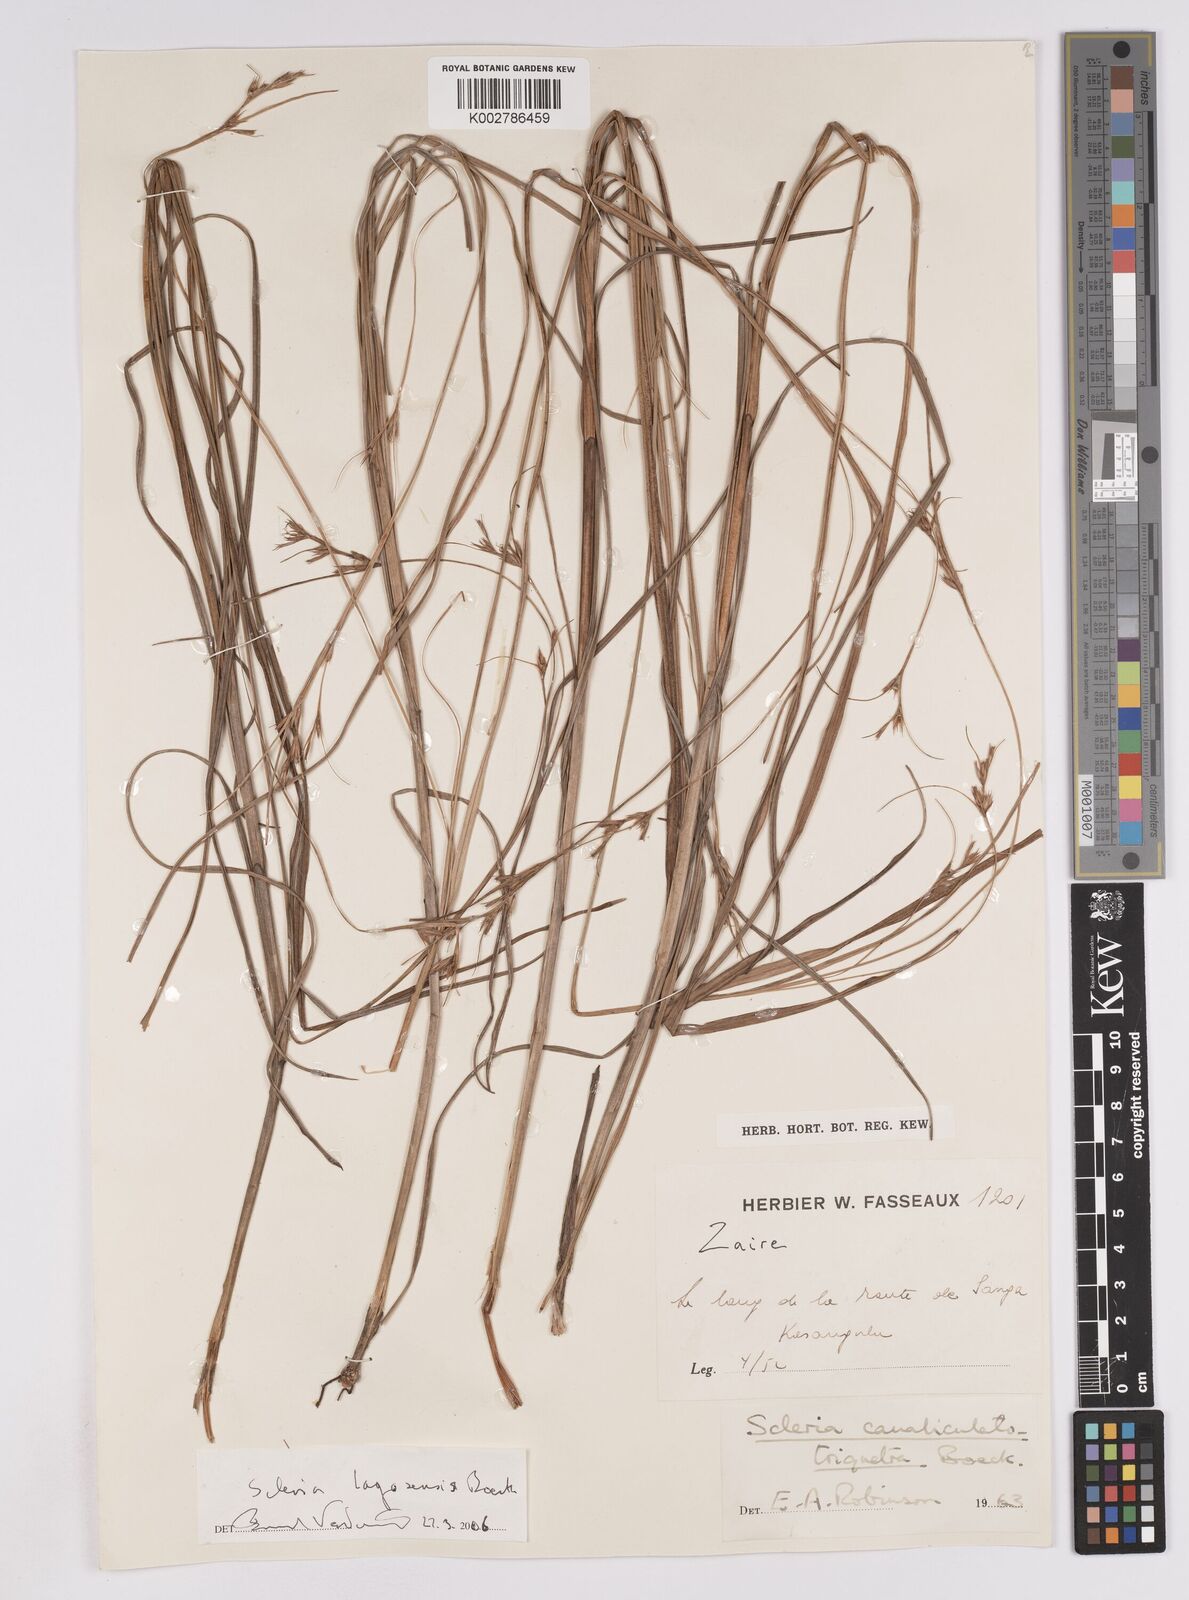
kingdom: Plantae
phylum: Tracheophyta
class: Liliopsida
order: Poales
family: Cyperaceae
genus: Scleria
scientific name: Scleria lagoensis
